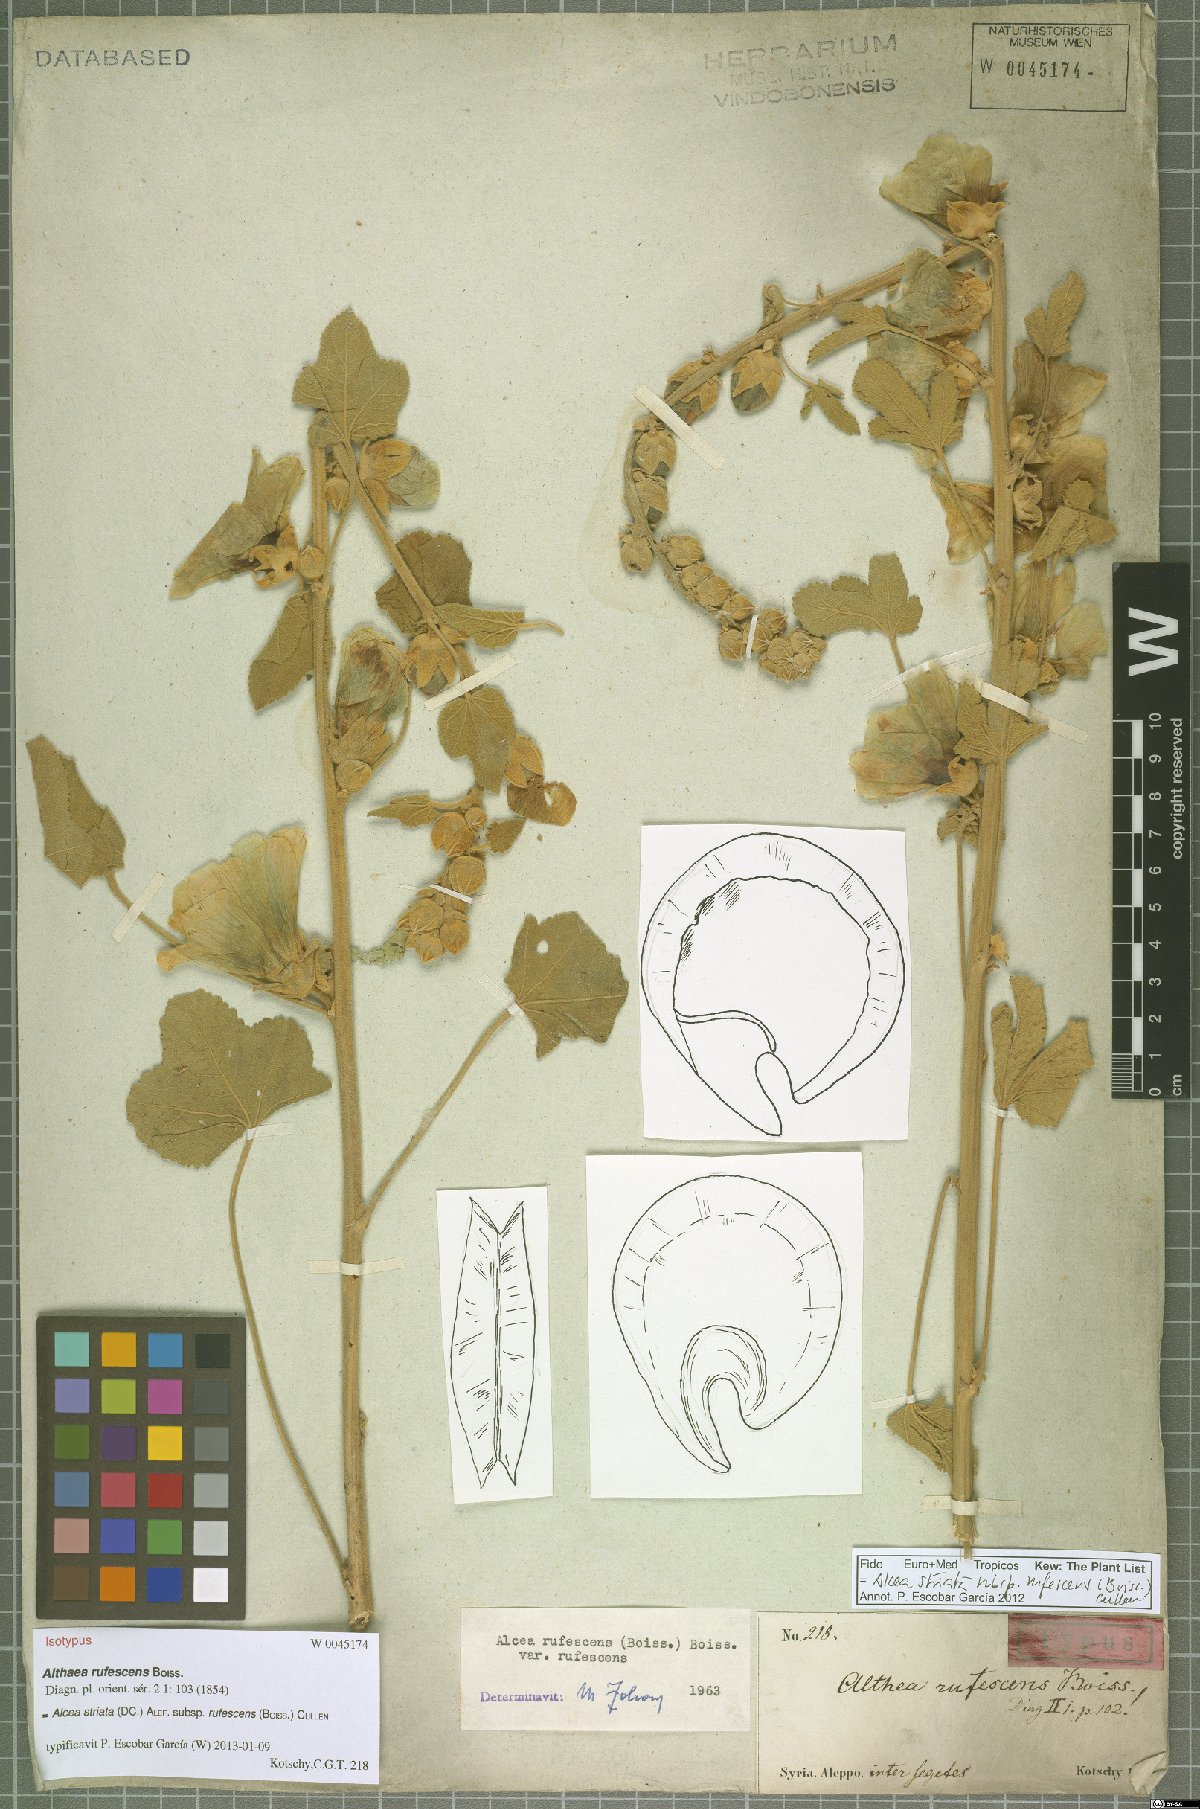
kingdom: Plantae
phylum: Tracheophyta
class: Magnoliopsida
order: Malvales
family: Malvaceae
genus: Alcea
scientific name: Alcea rufescens
